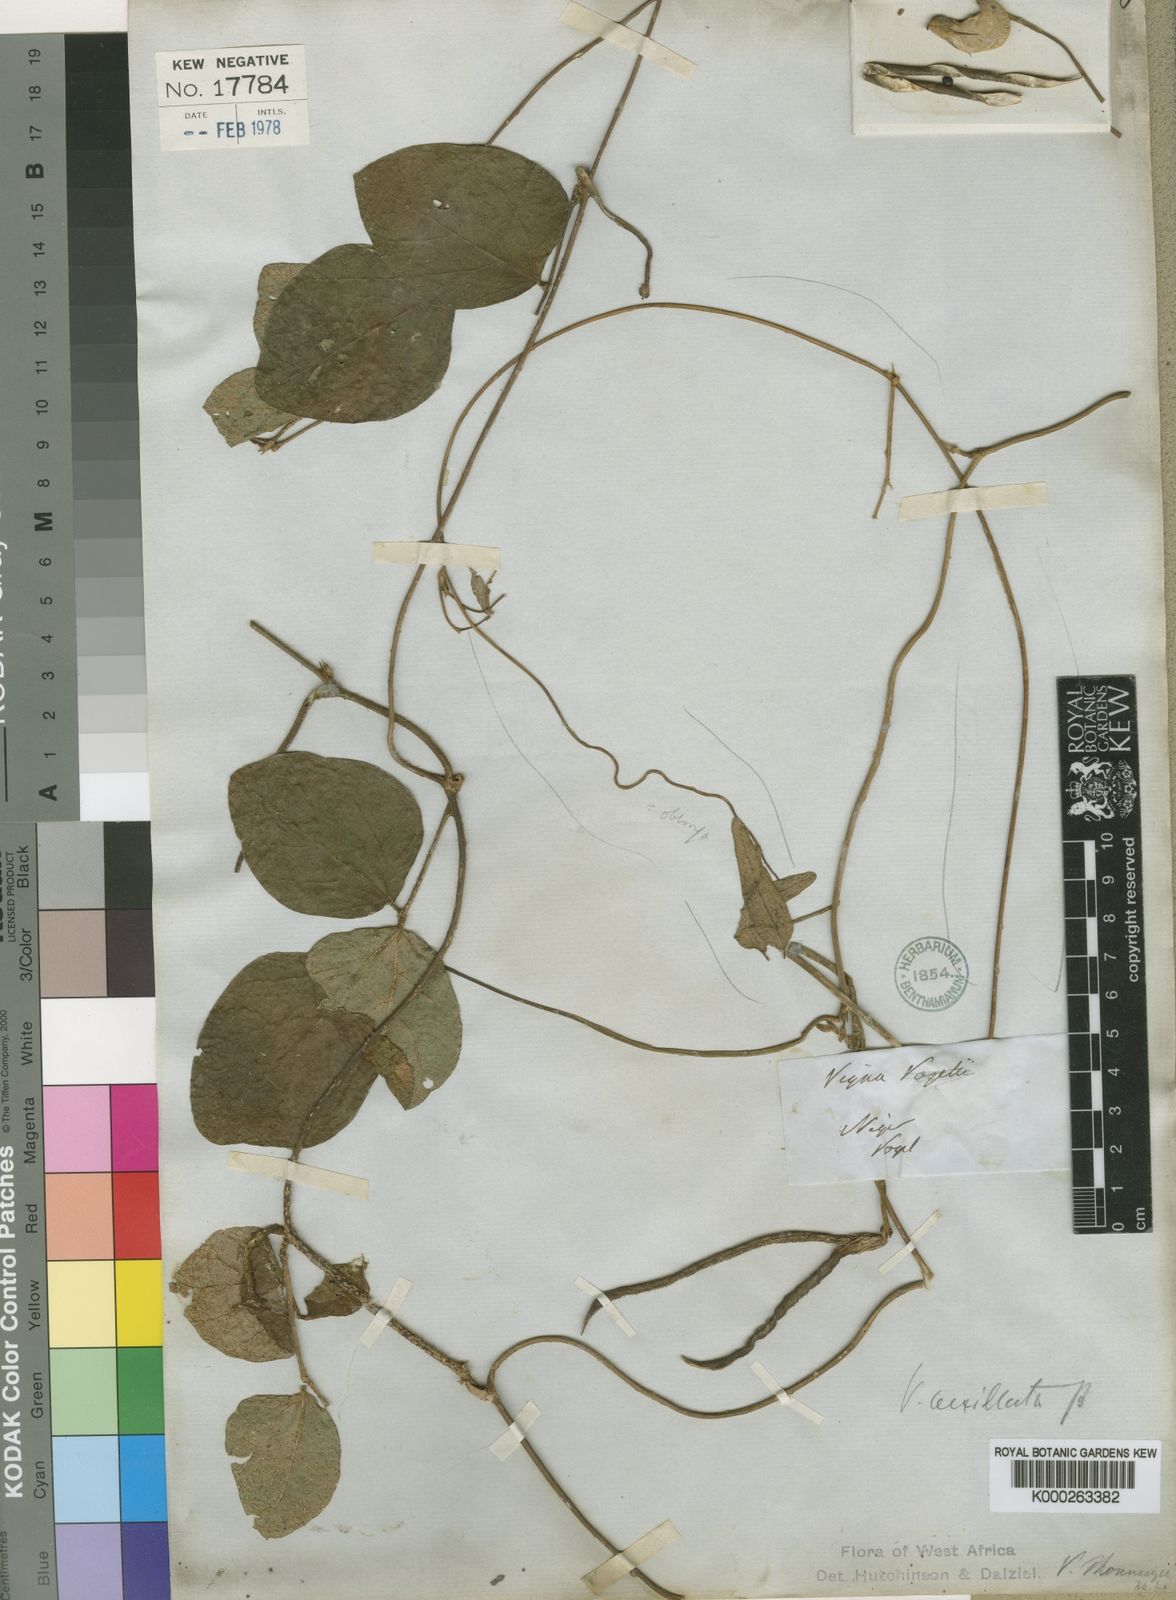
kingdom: Plantae
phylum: Tracheophyta
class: Magnoliopsida
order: Fabales
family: Fabaceae
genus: Vigna
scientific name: Vigna vexillata
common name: Zombi pea
